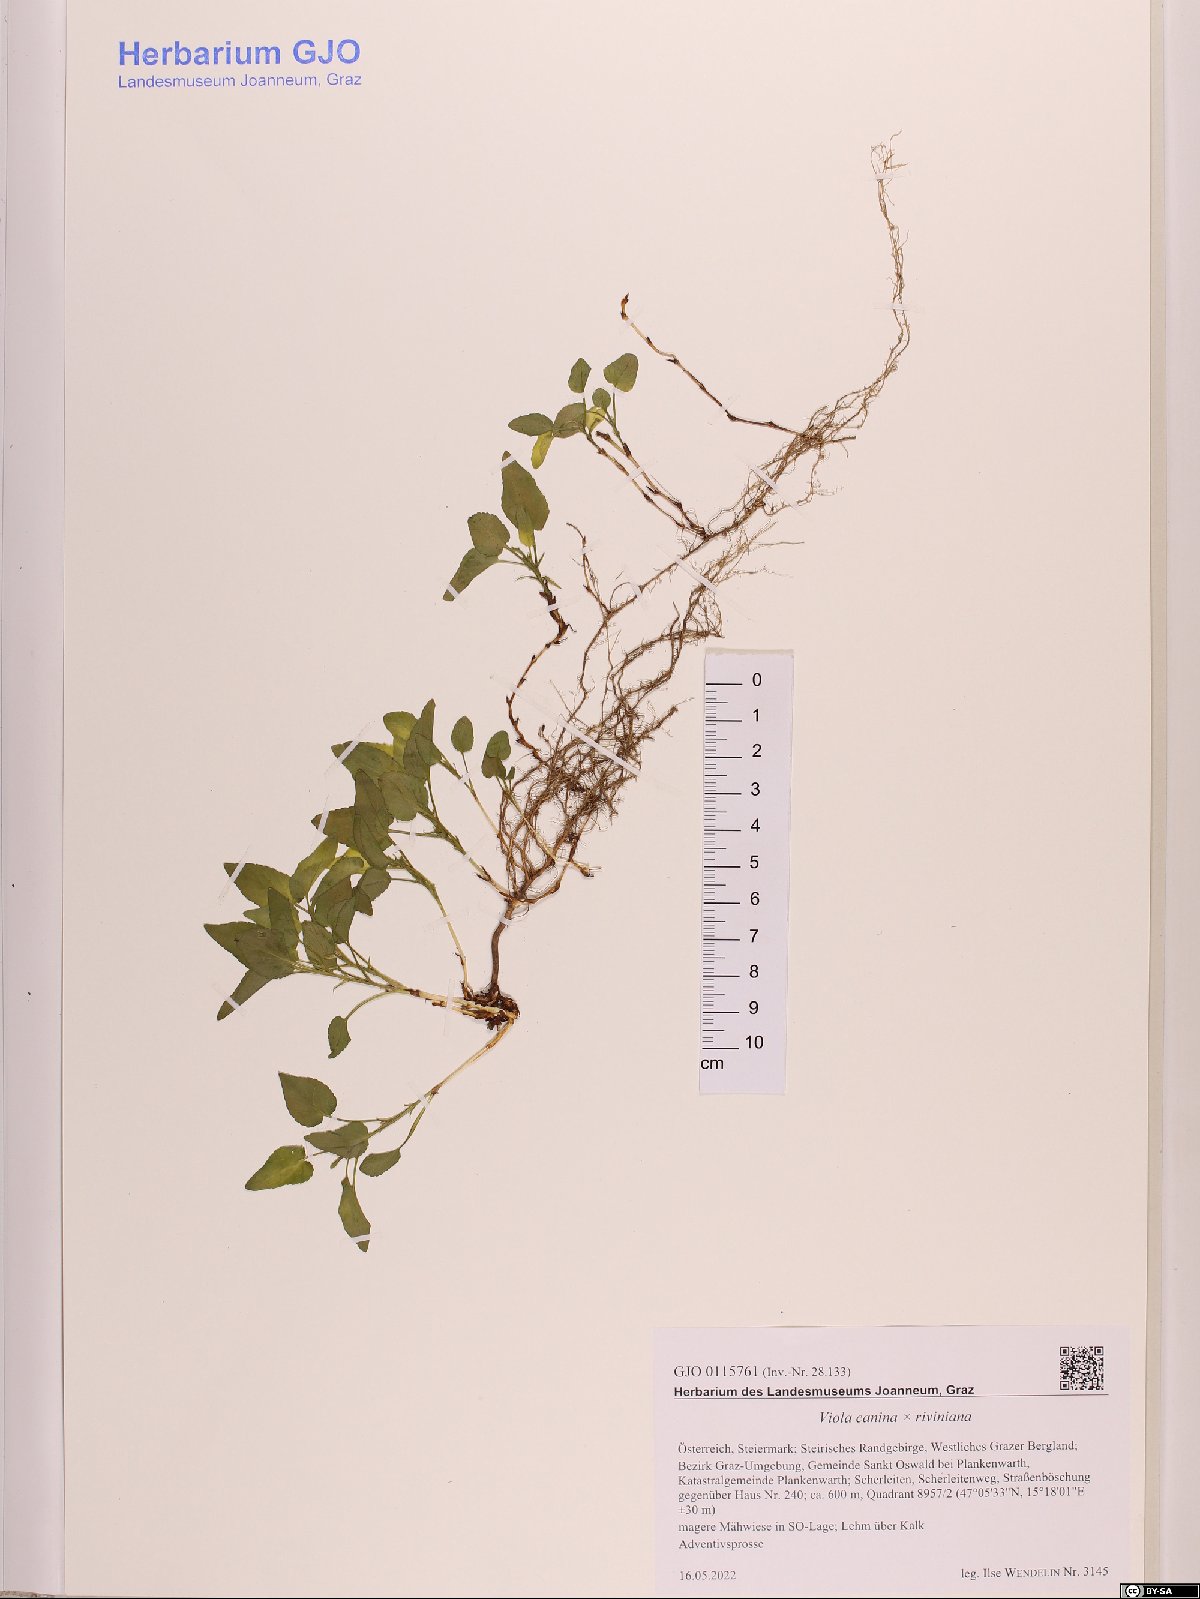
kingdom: Plantae
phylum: Tracheophyta
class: Magnoliopsida
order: Malpighiales
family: Violaceae
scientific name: Violaceae
